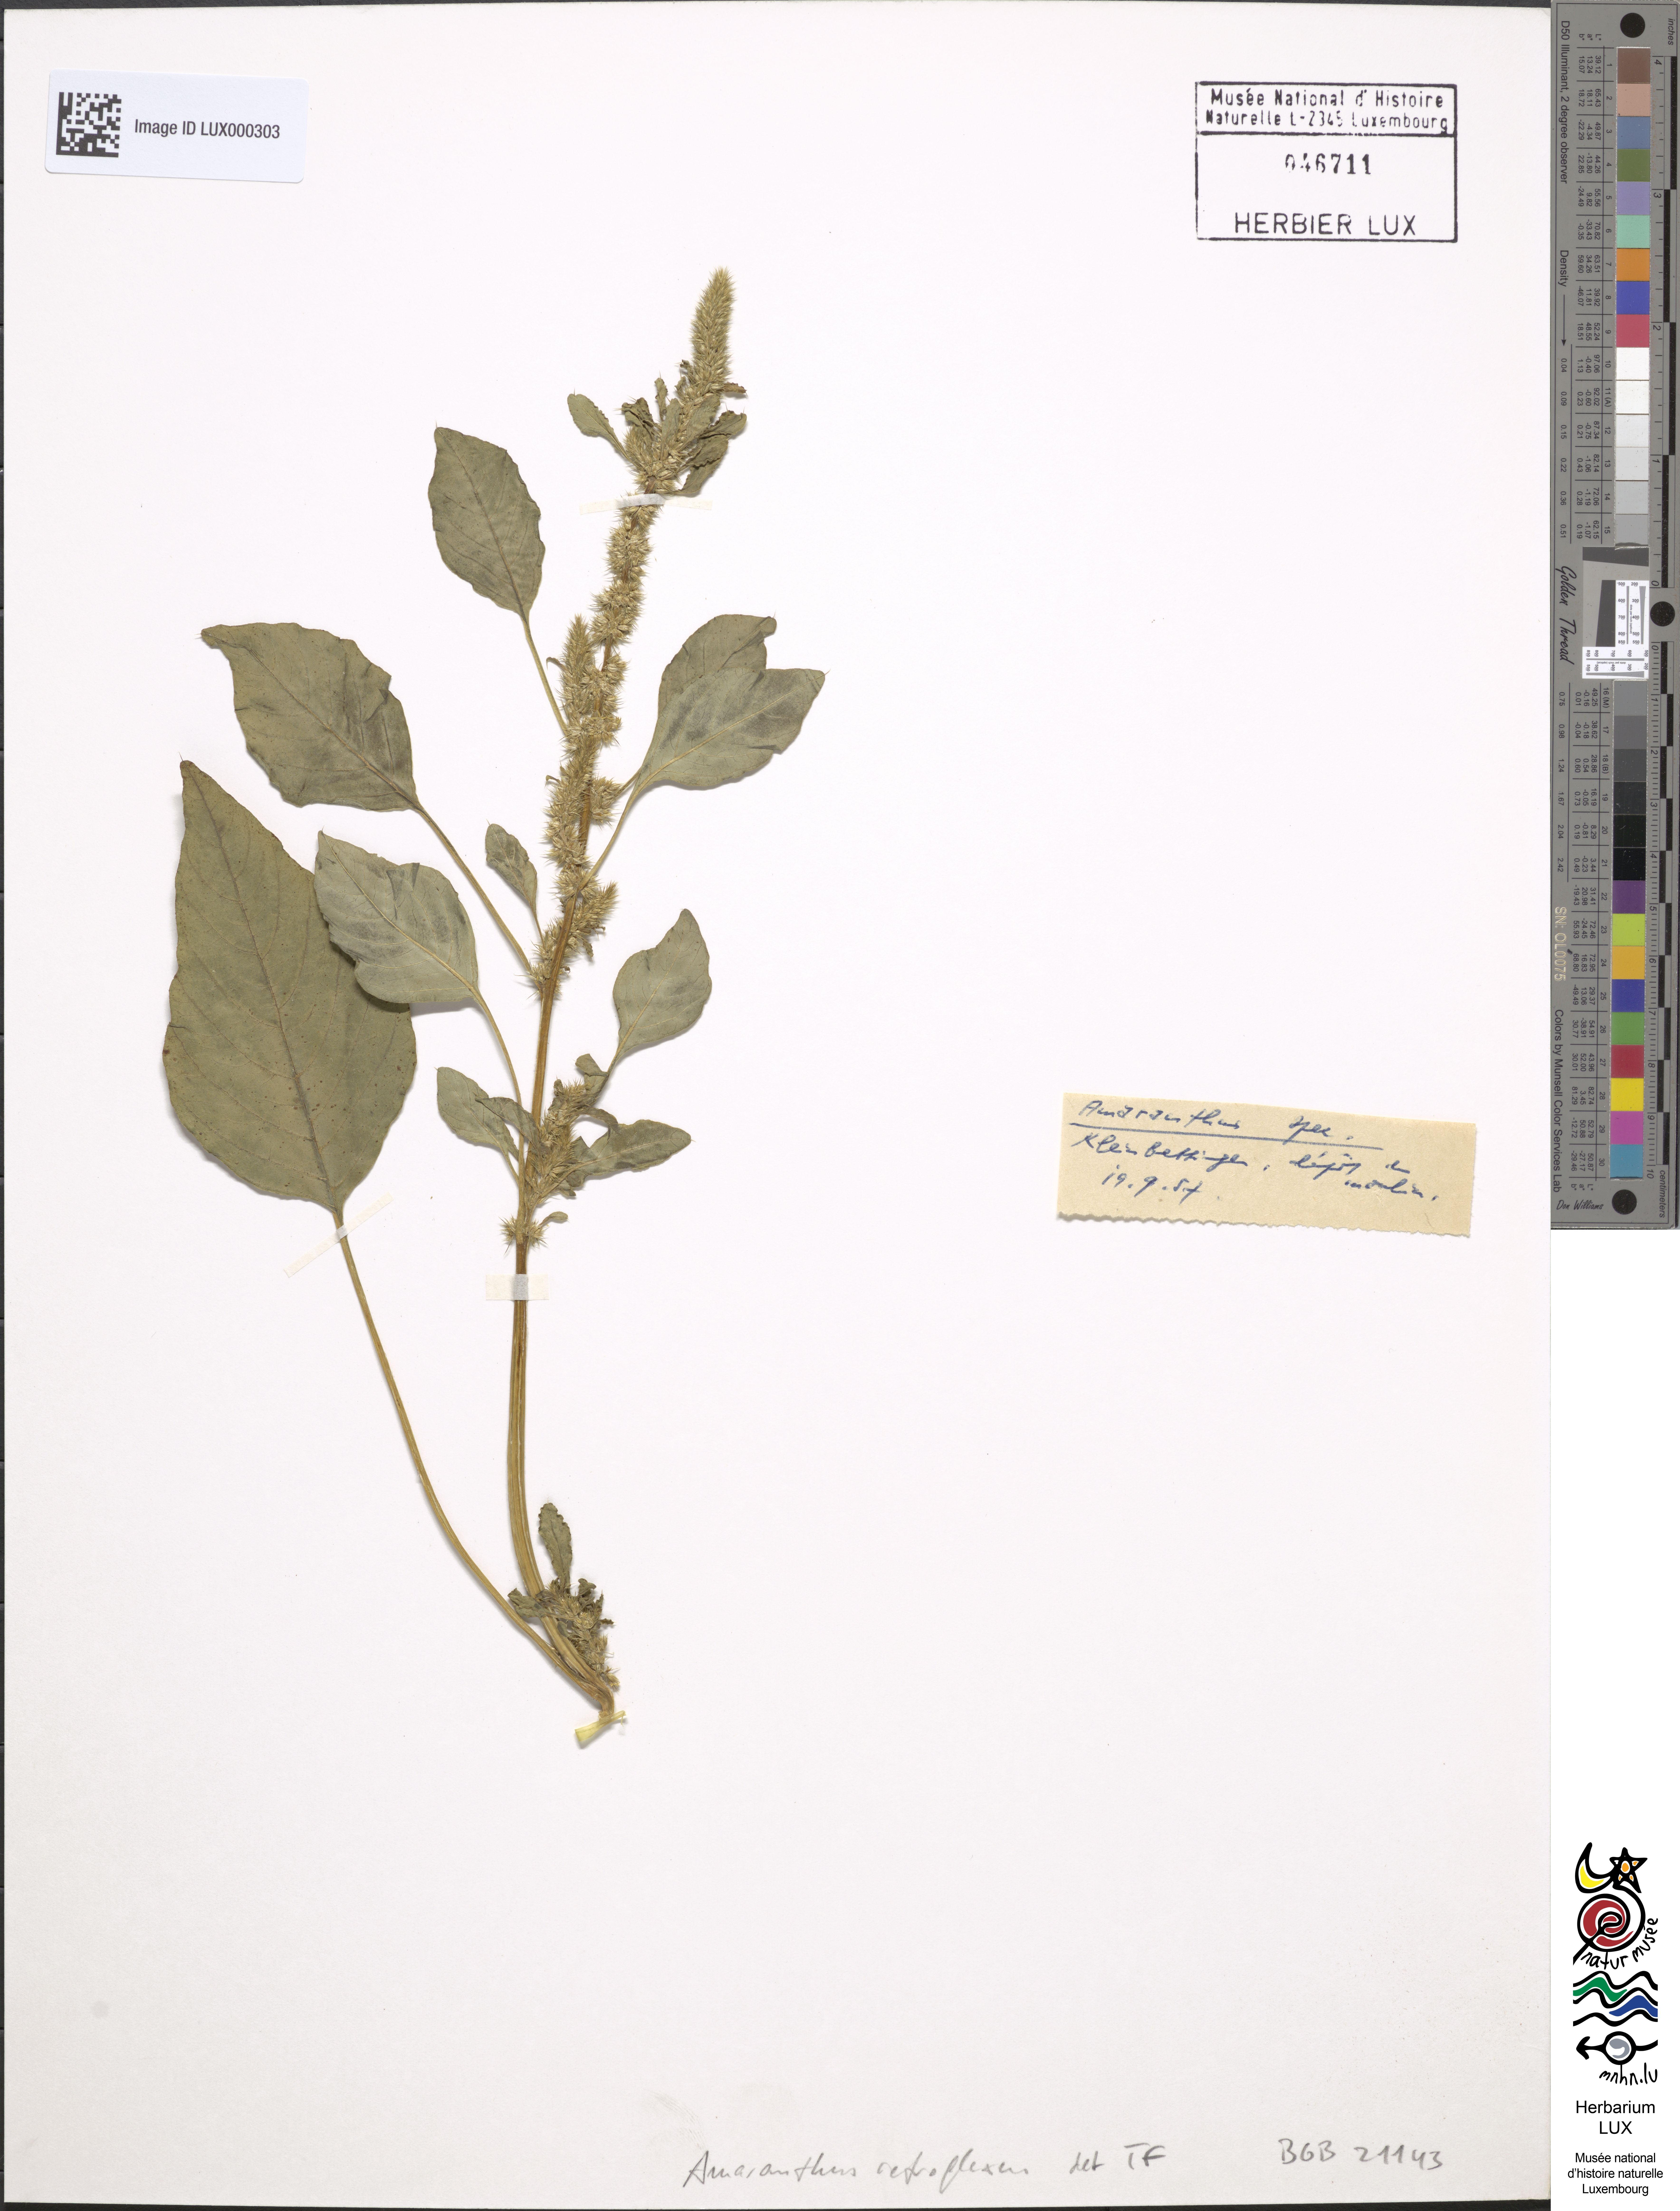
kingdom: Plantae
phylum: Tracheophyta
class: Magnoliopsida
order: Caryophyllales
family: Amaranthaceae
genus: Amaranthus
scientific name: Amaranthus retroflexus
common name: Redroot amaranth
